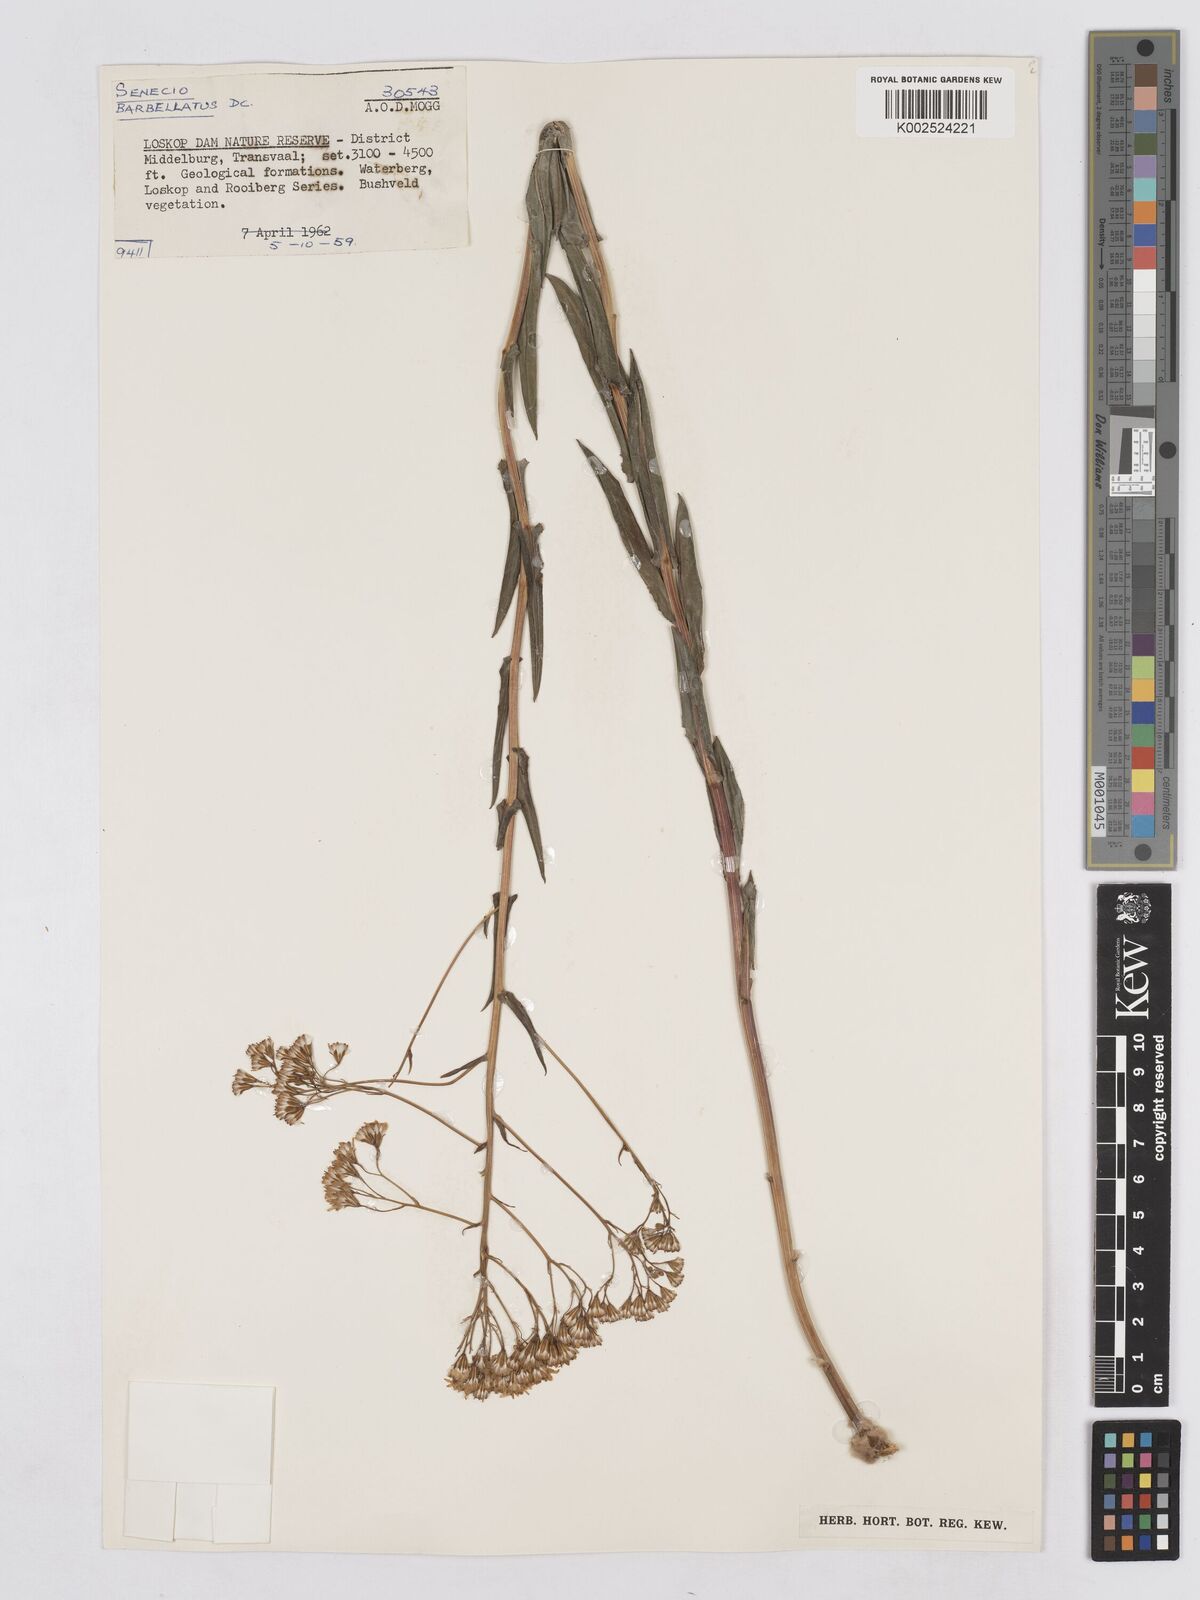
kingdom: Plantae
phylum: Tracheophyta
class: Magnoliopsida
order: Asterales
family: Asteraceae
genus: Senecio
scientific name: Senecio retrorsus
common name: Ragwort
